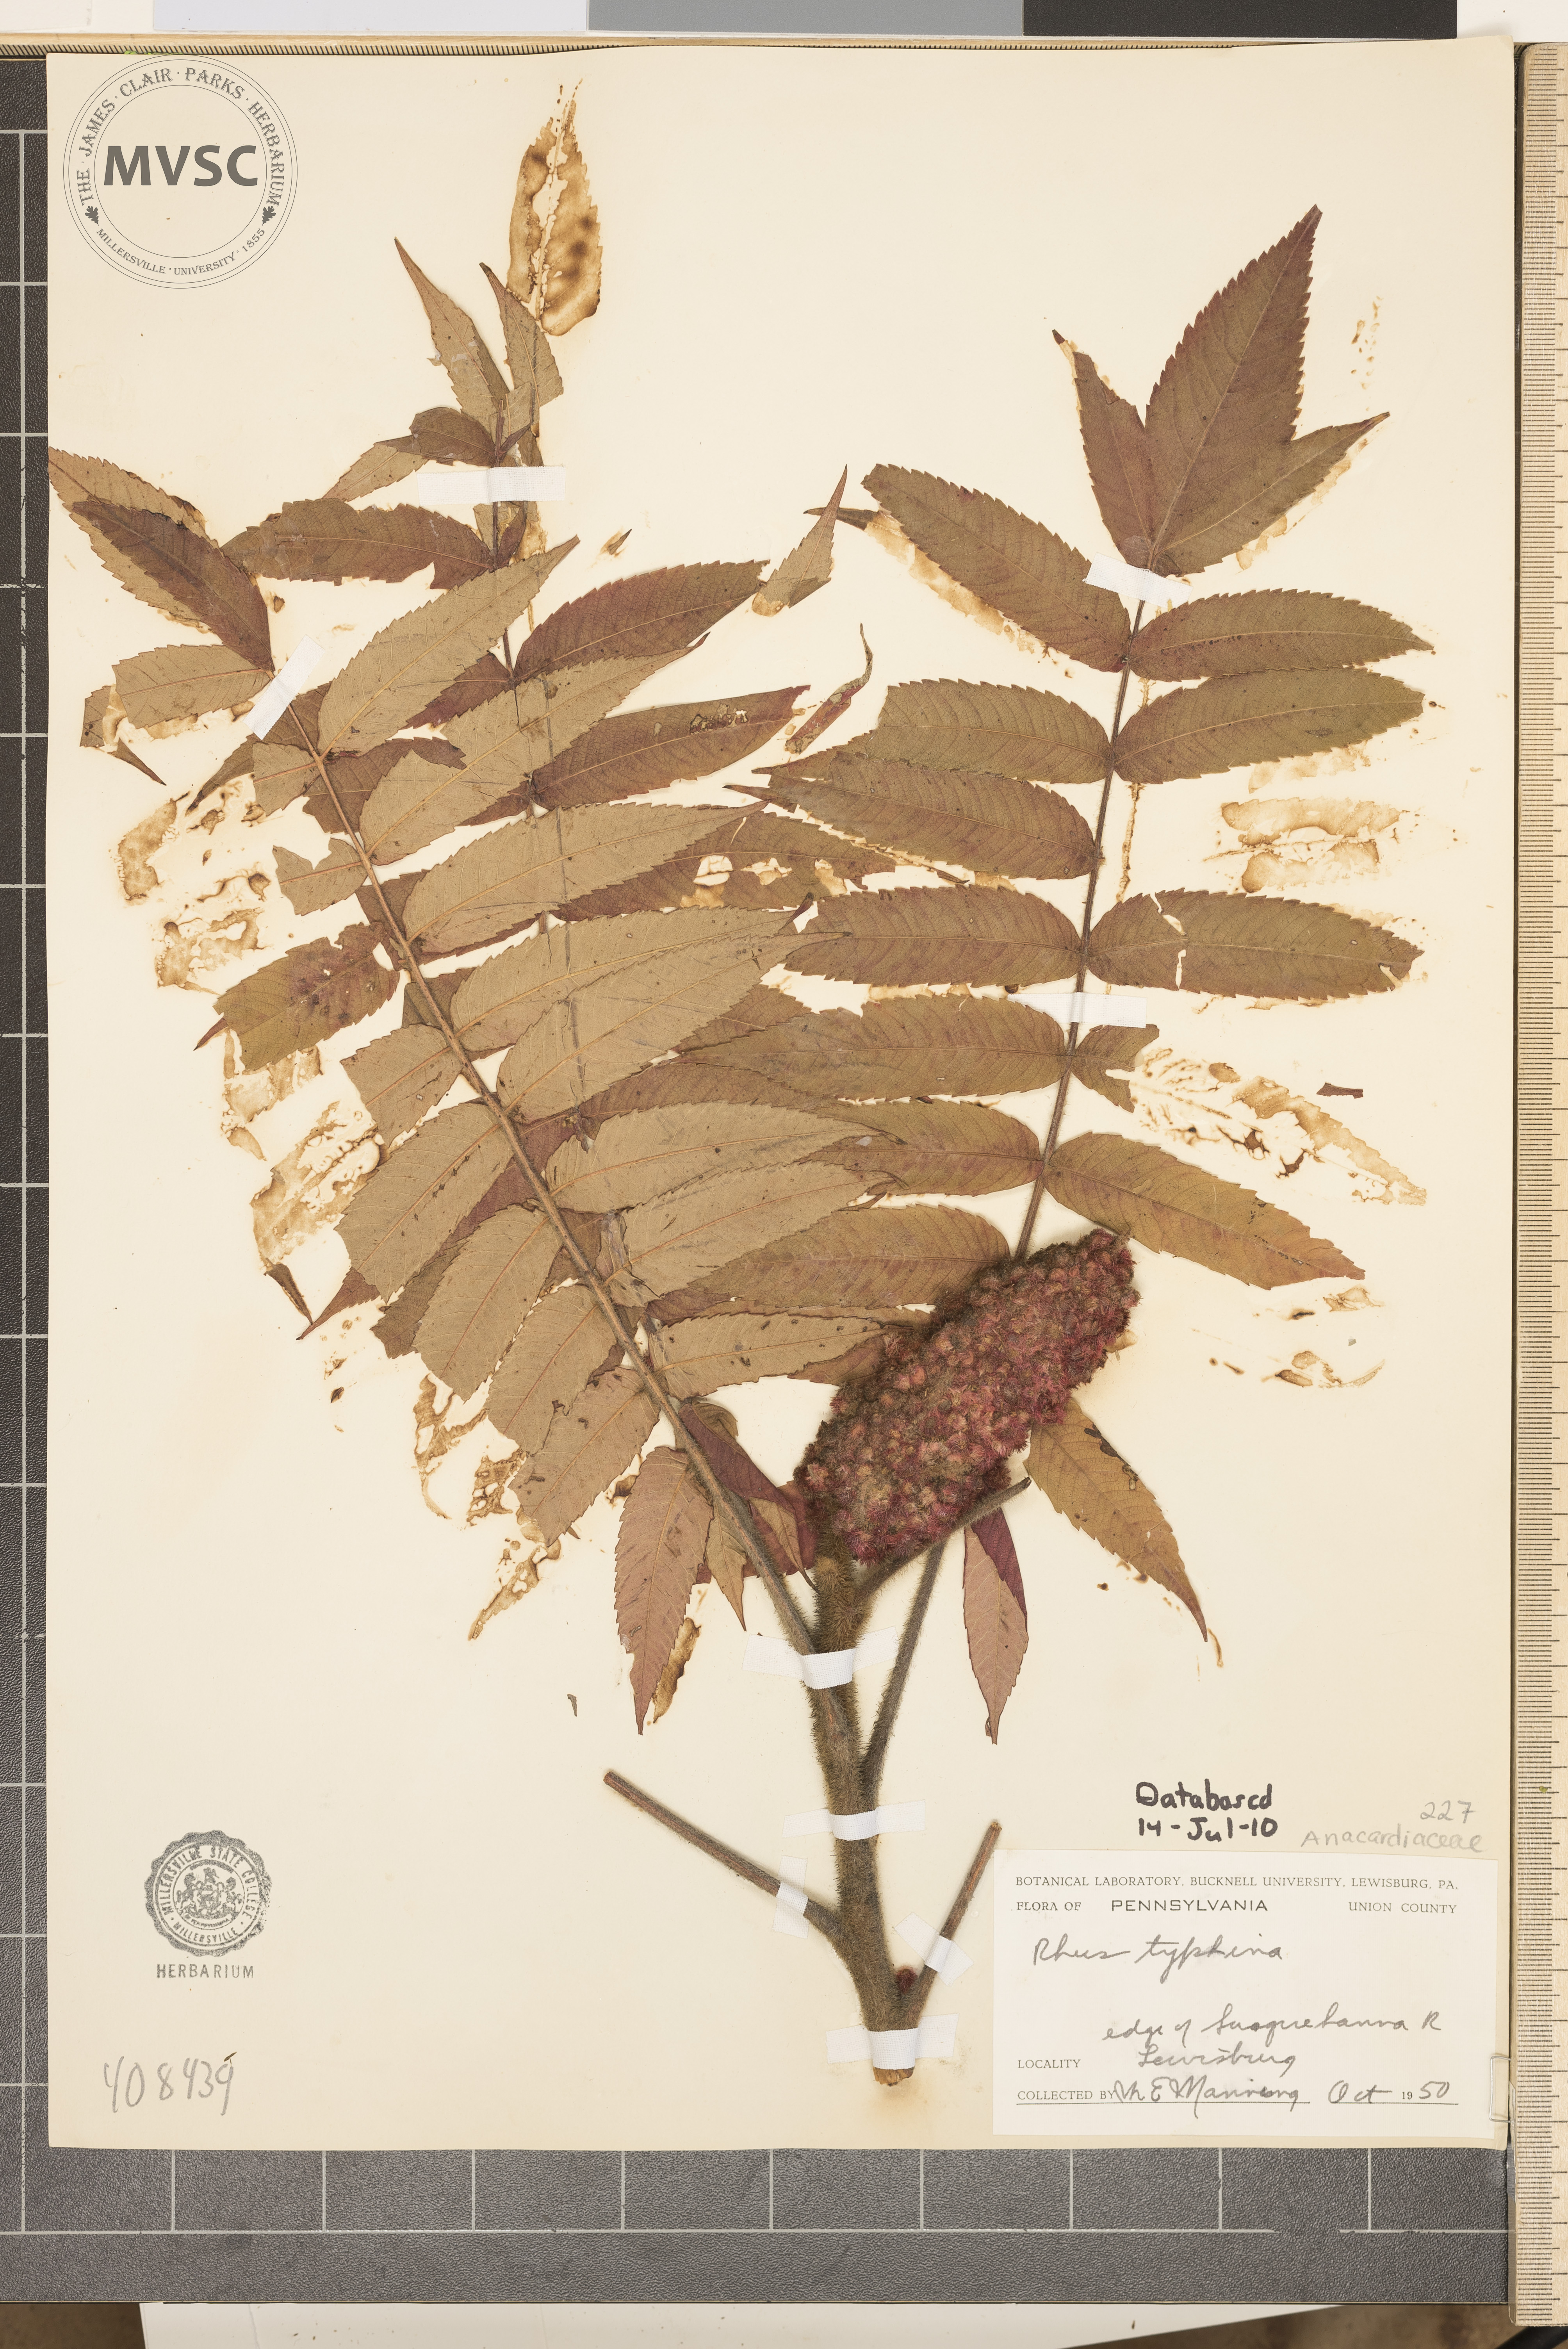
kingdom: Plantae
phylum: Tracheophyta
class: Magnoliopsida
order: Sapindales
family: Anacardiaceae
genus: Rhus
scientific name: Rhus typhina
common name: Staghorn sumac
